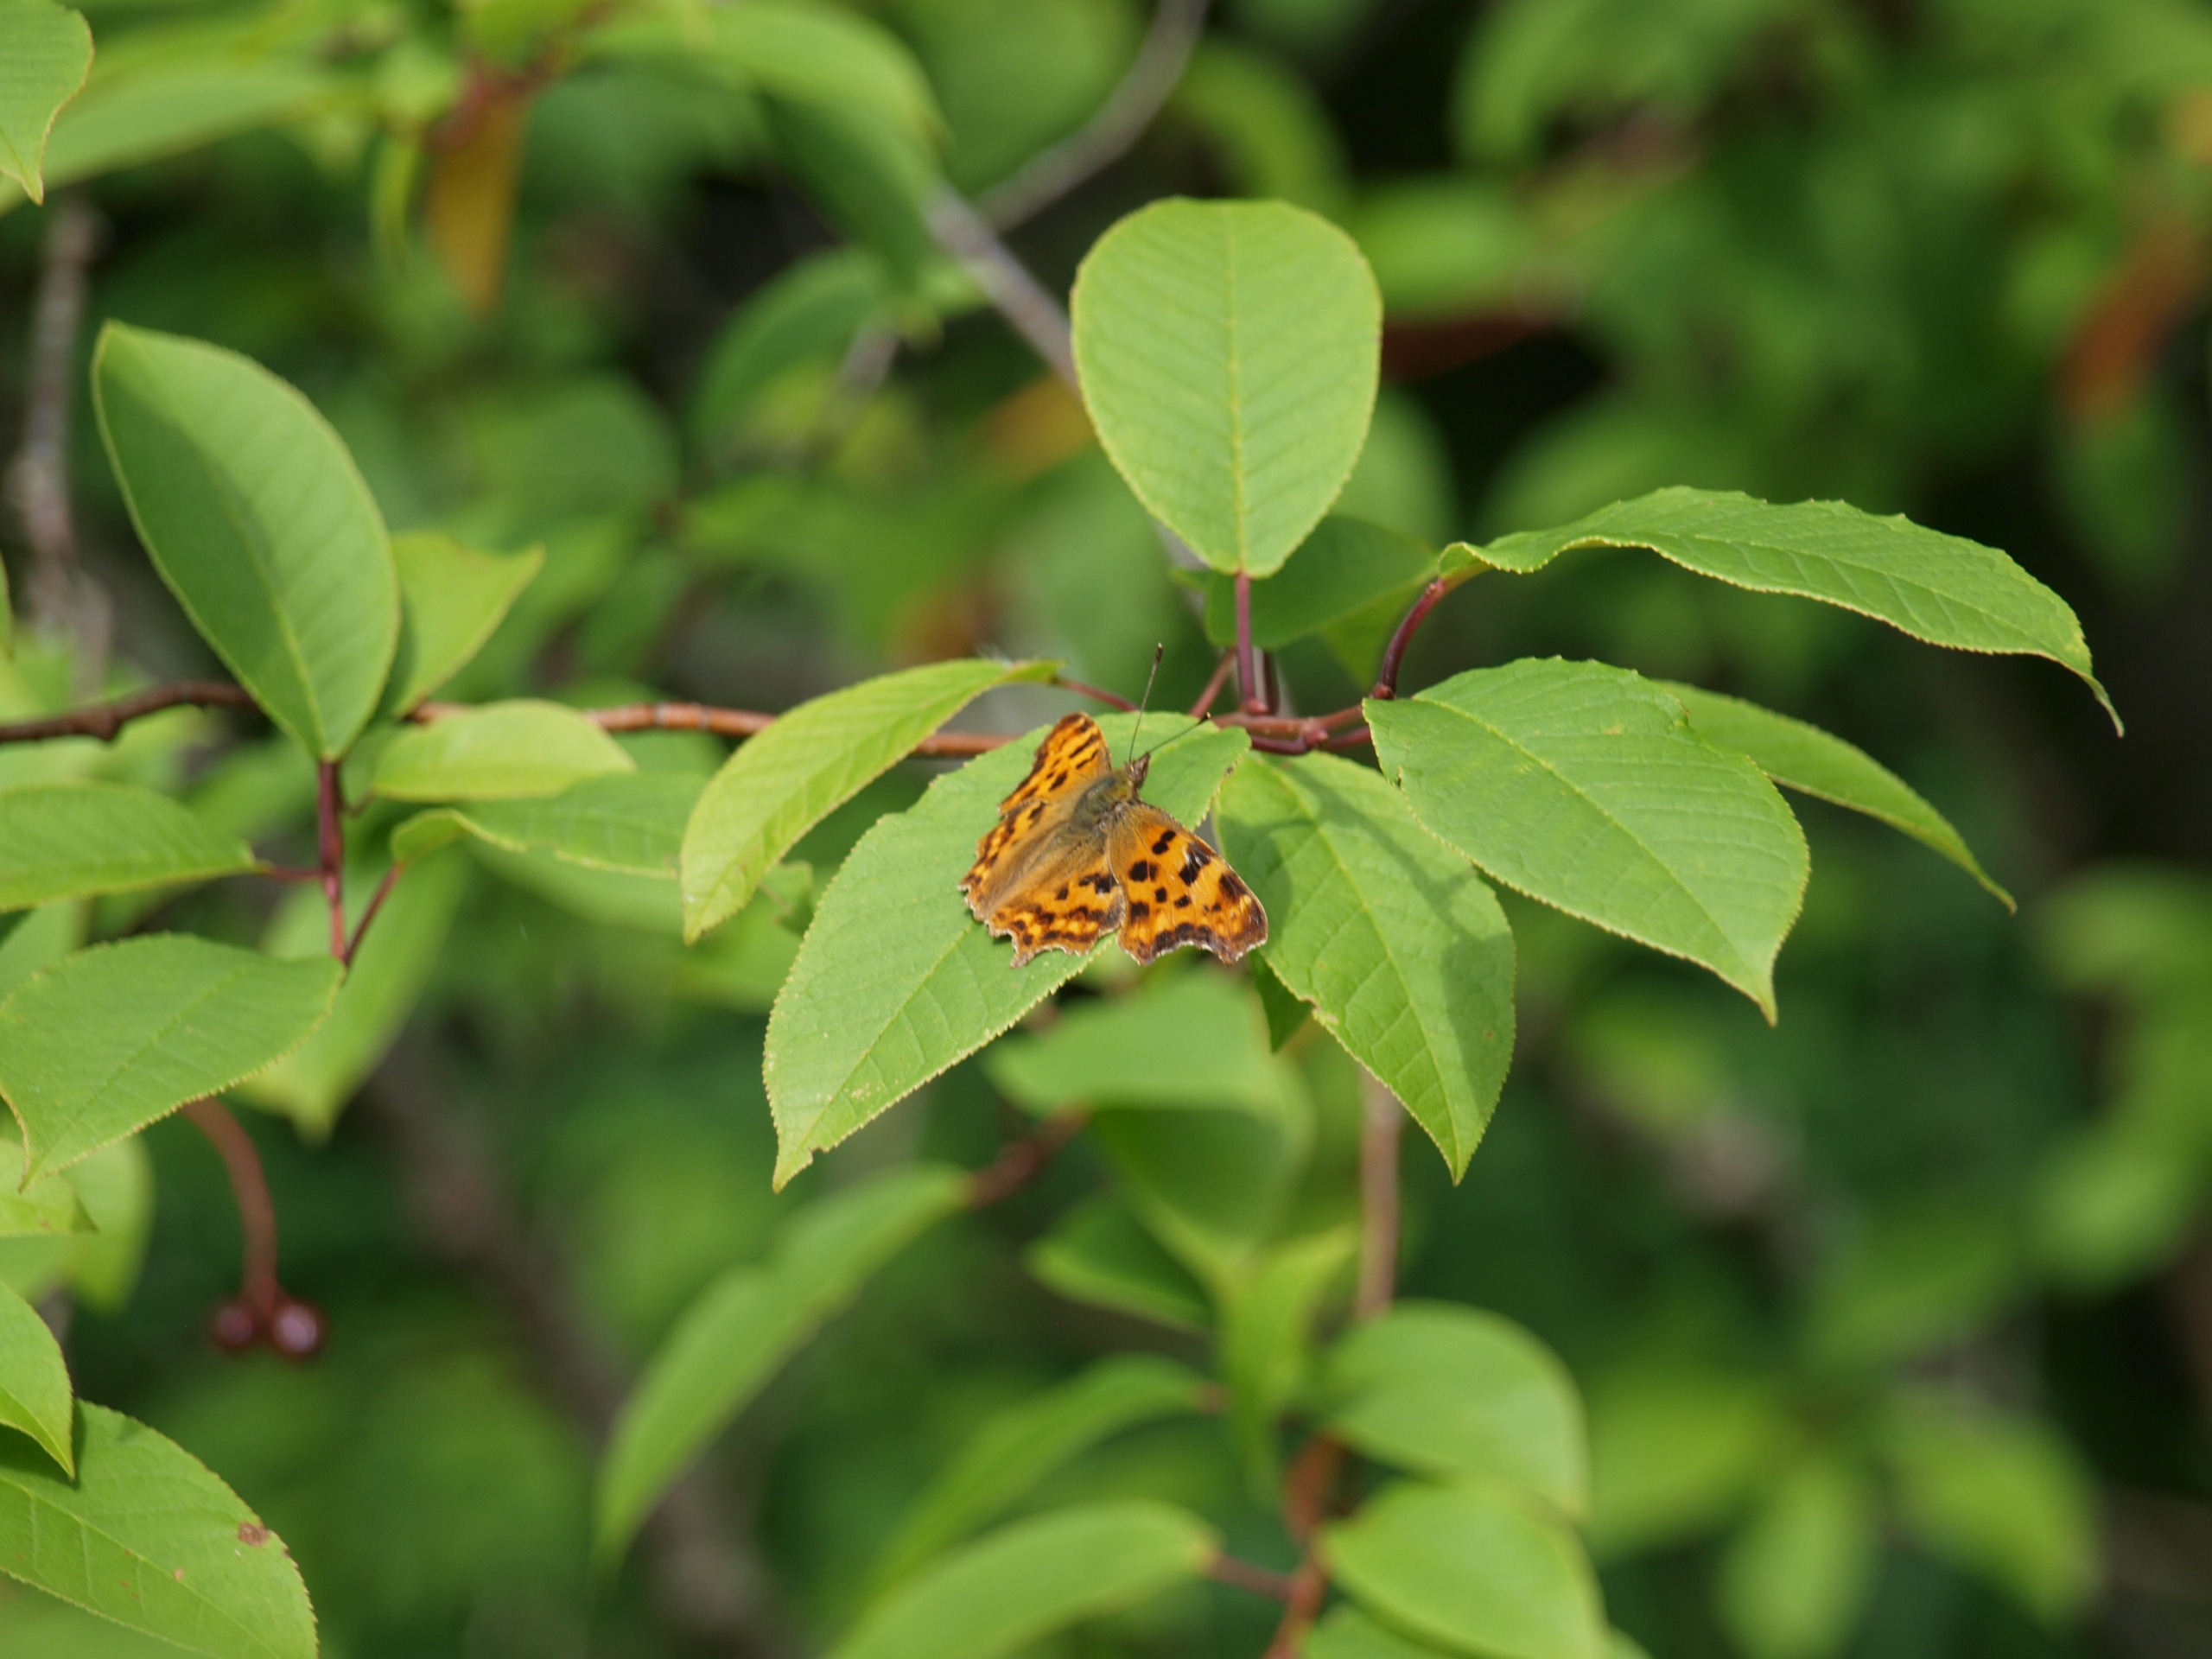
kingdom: Animalia
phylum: Arthropoda
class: Insecta
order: Lepidoptera
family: Nymphalidae
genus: Polygonia
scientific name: Polygonia c-album
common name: Det hvide C
